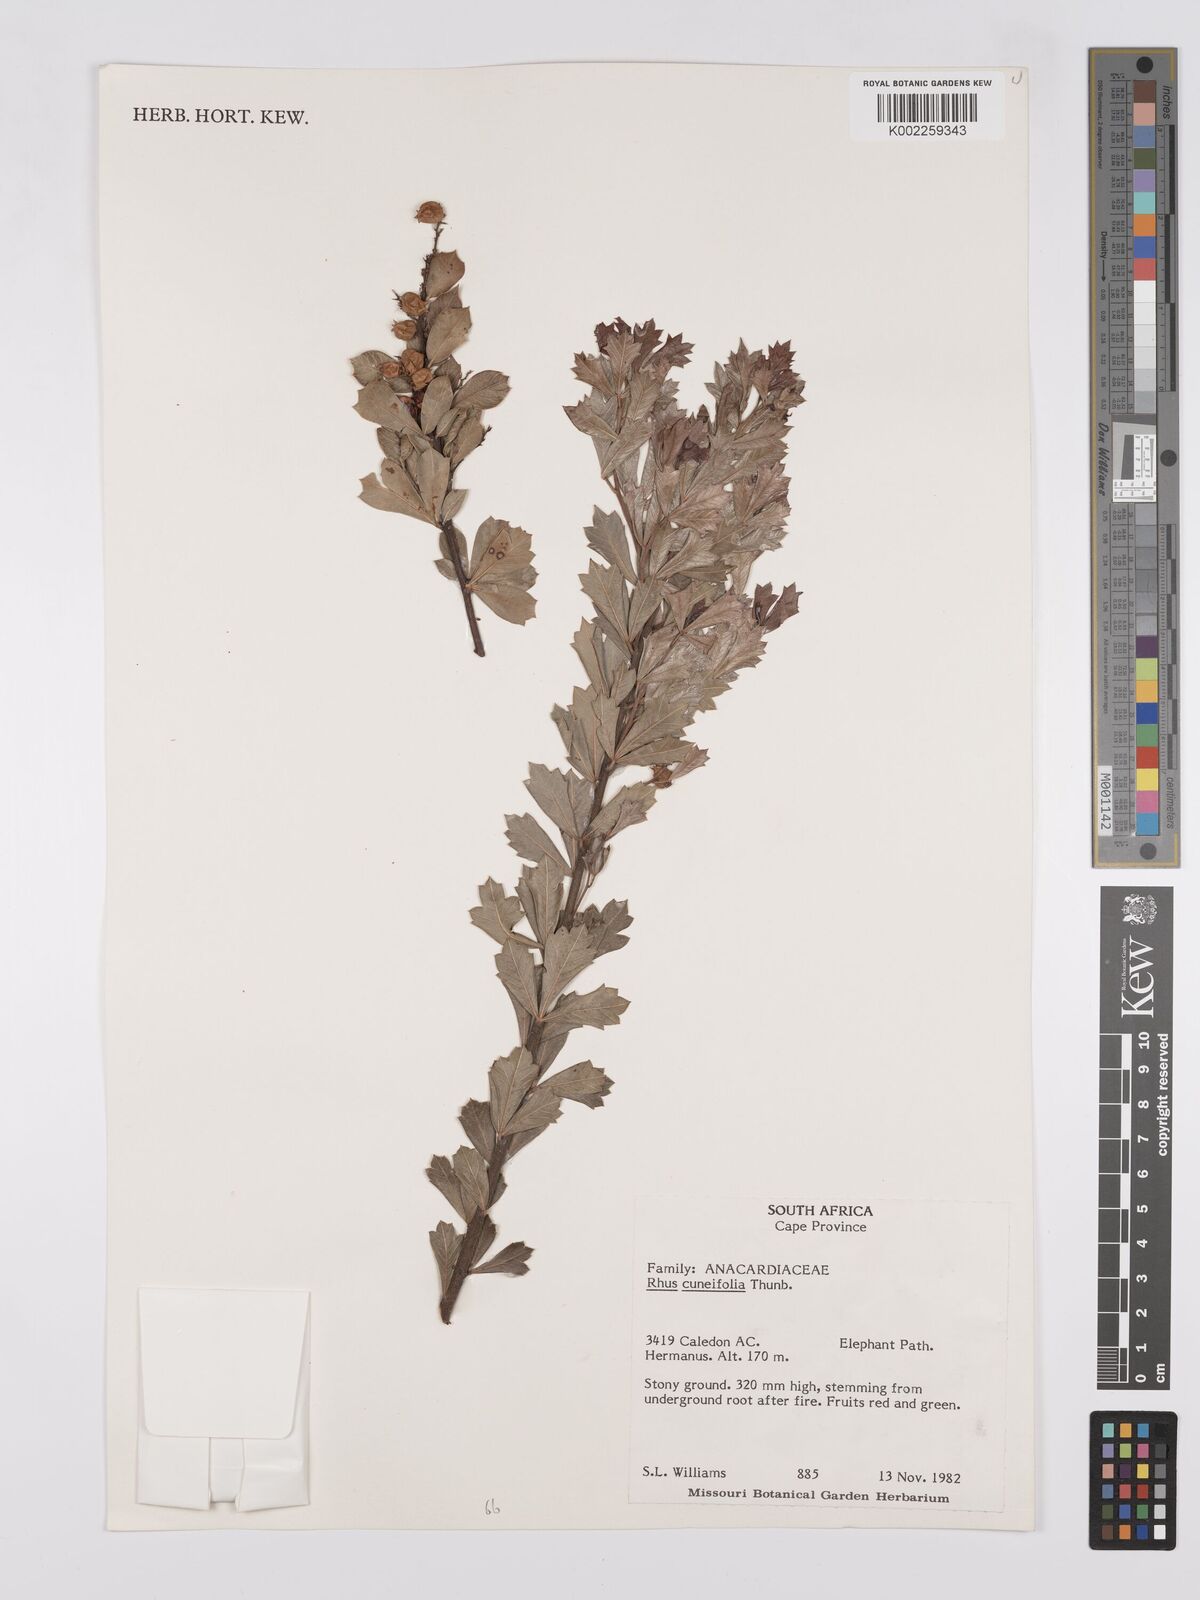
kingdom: Plantae
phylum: Tracheophyta
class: Magnoliopsida
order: Sapindales
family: Anacardiaceae
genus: Searsia
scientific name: Searsia cuneifolia
